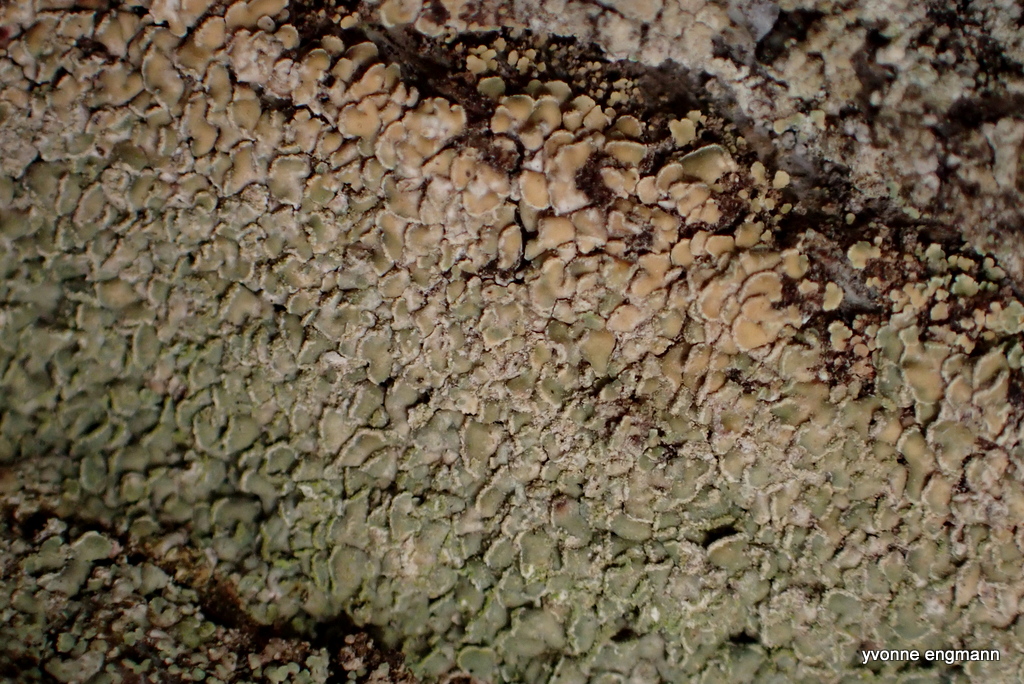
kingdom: Fungi
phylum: Ascomycota
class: Lecanoromycetes
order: Umbilicariales
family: Ophioparmaceae
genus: Hypocenomyce
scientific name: Hypocenomyce scalaris
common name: småskællet muslinglav
